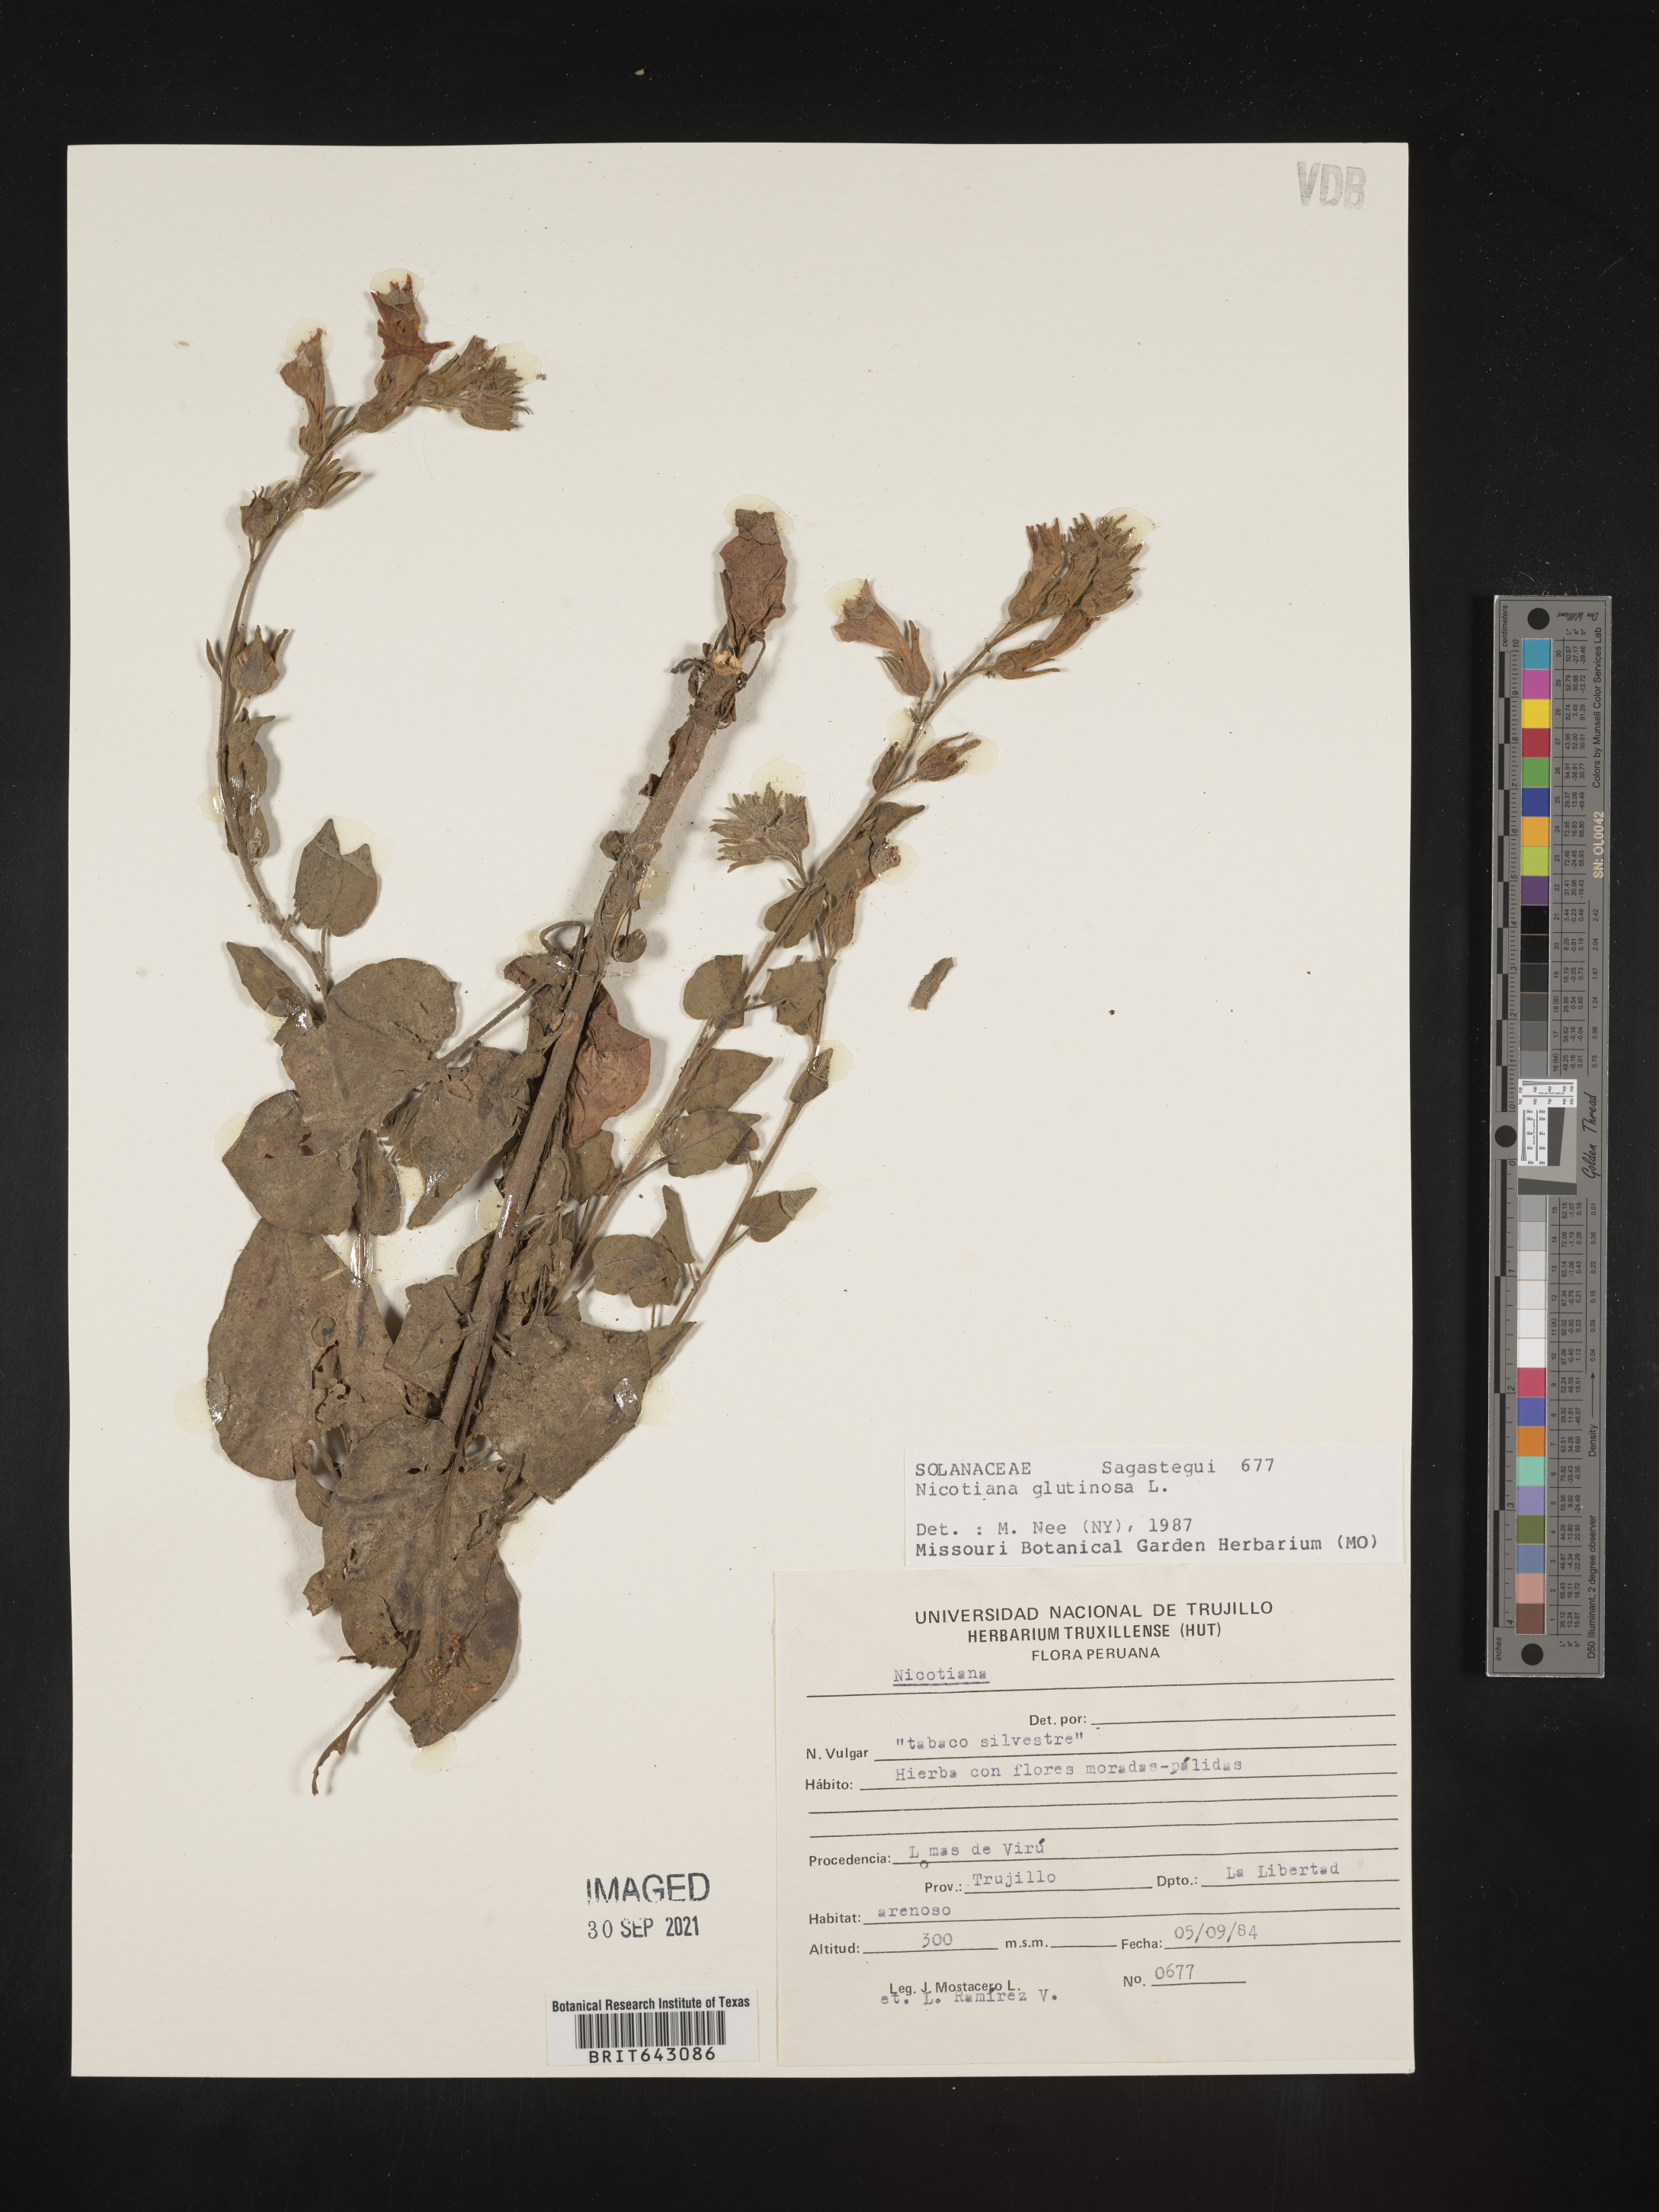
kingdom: Plantae
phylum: Tracheophyta
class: Magnoliopsida
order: Solanales
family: Solanaceae
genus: Nicotiana
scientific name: Nicotiana
